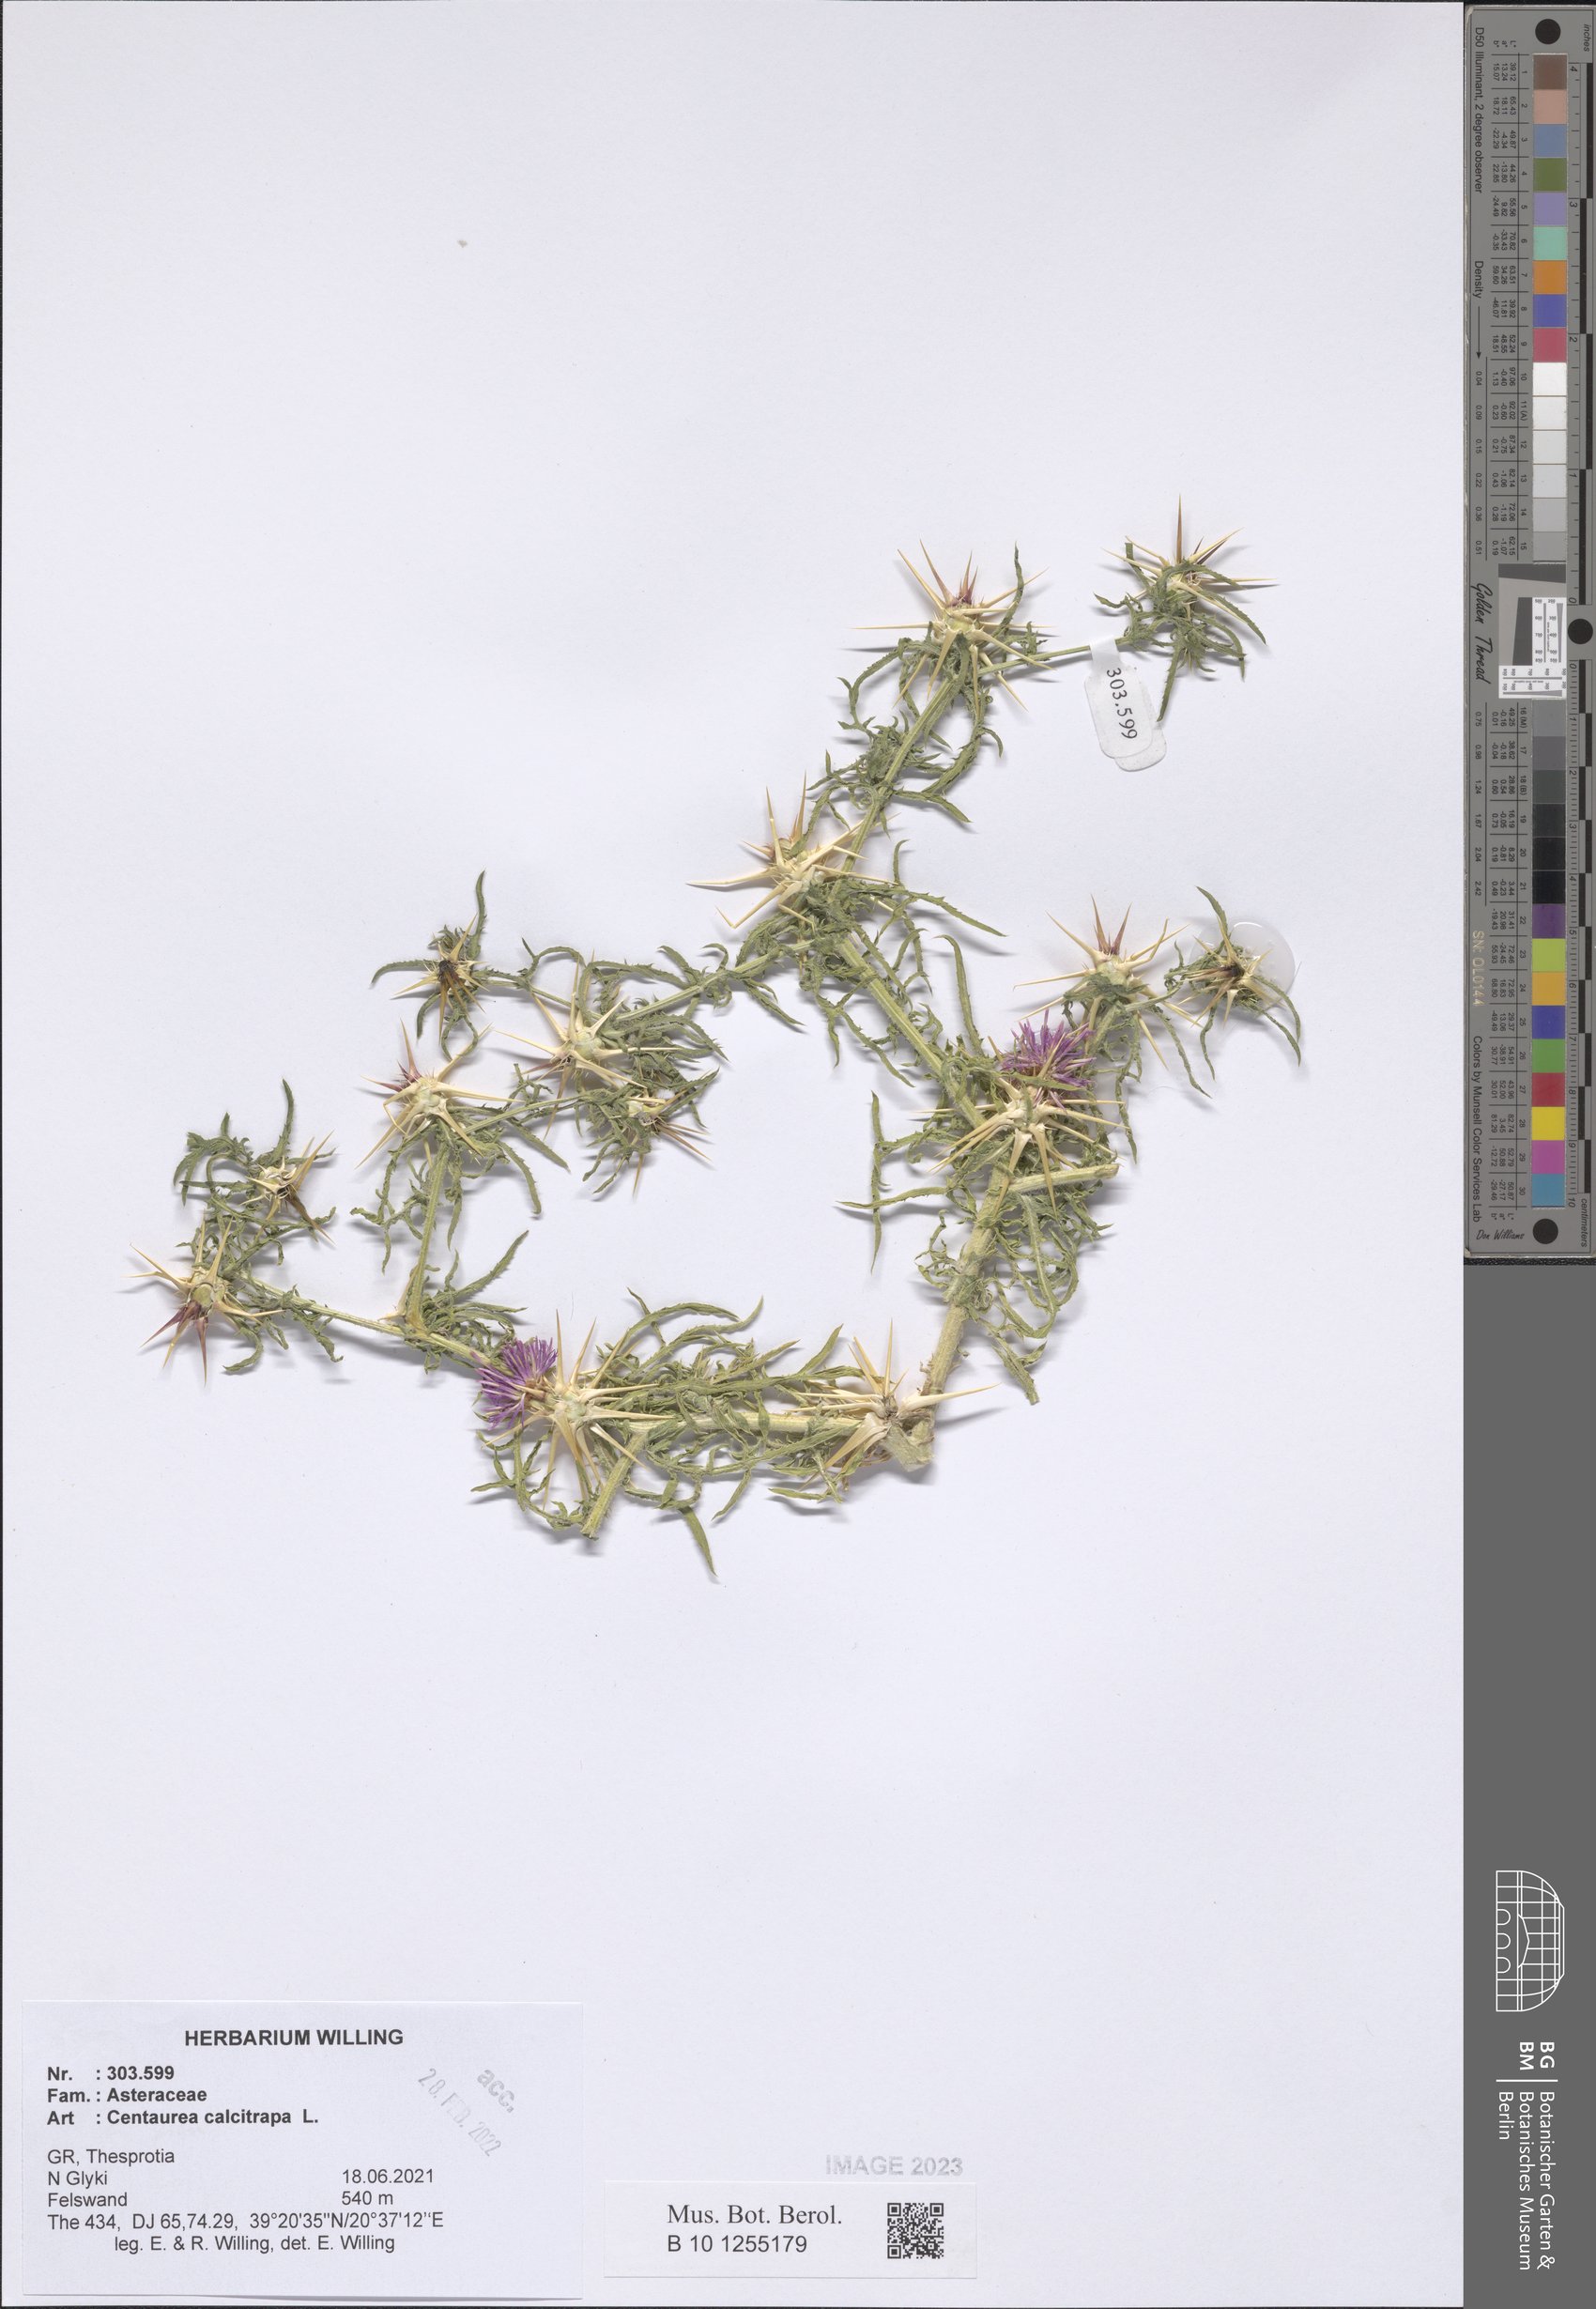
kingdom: Plantae
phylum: Tracheophyta
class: Magnoliopsida
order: Asterales
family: Asteraceae
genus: Centaurea
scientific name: Centaurea calcitrapa
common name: Red star-thistle
